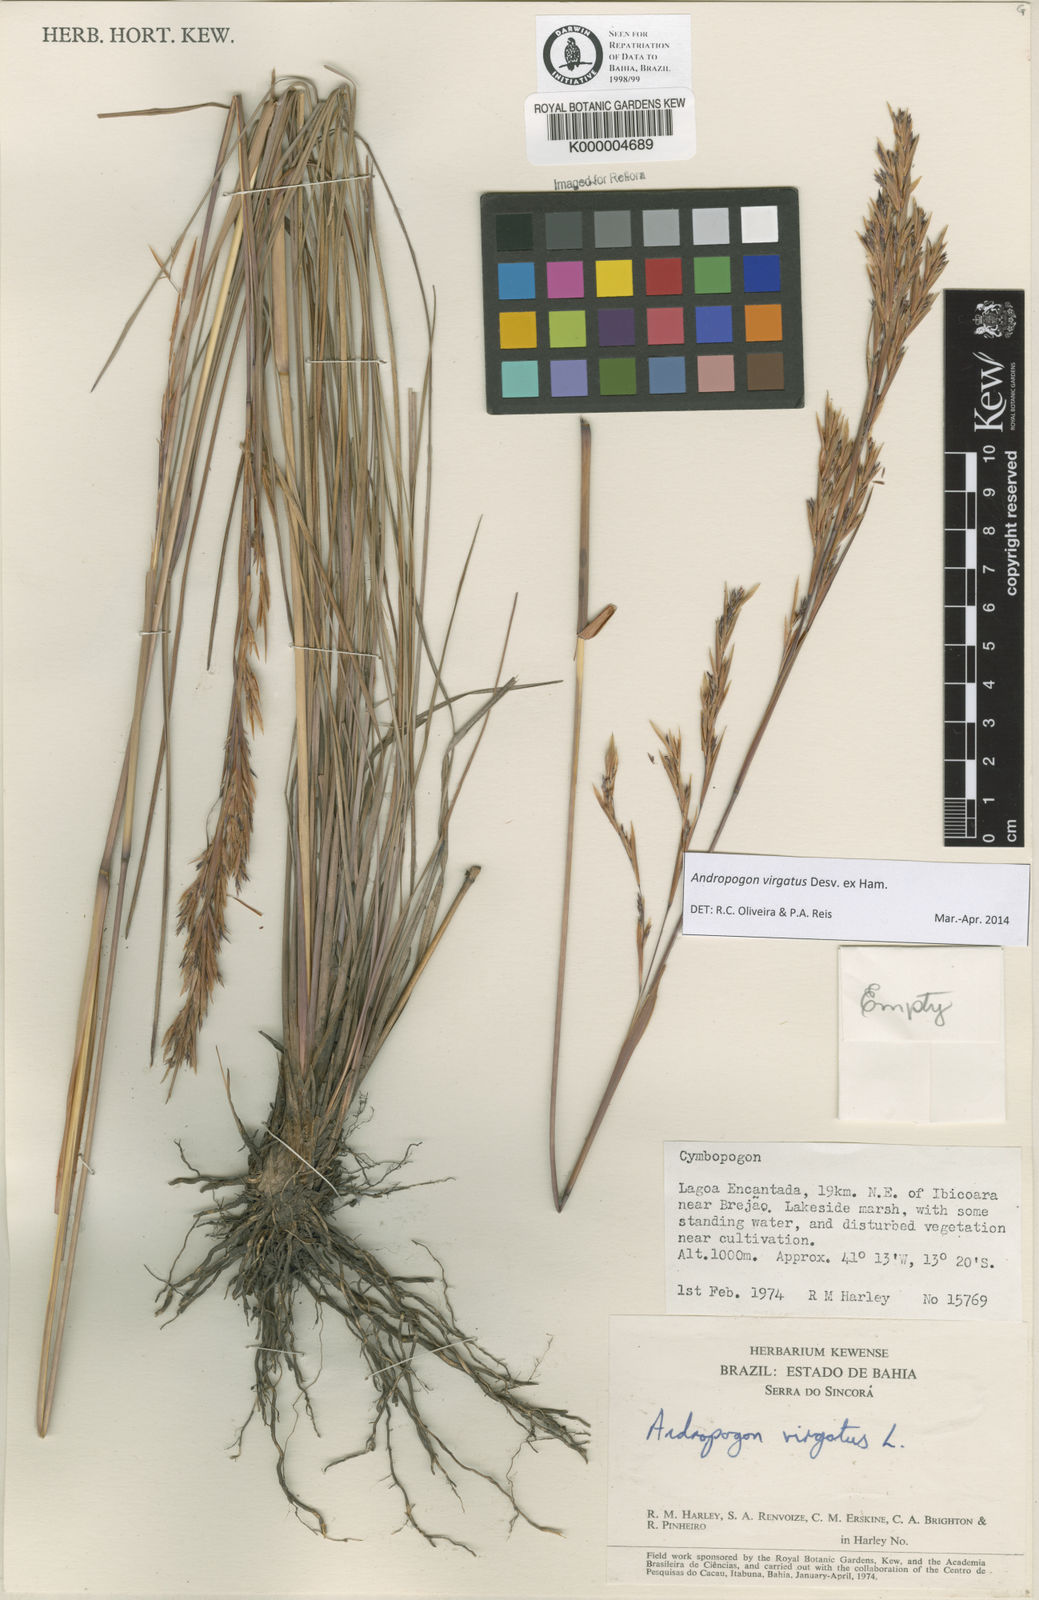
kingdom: Plantae
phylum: Tracheophyta
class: Liliopsida
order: Poales
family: Poaceae
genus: Andropogon
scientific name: Andropogon virgatus
